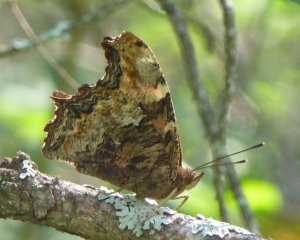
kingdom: Animalia
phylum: Arthropoda
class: Insecta
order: Lepidoptera
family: Nymphalidae
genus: Polygonia
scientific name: Polygonia vaualbum
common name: Compton Tortoiseshell
